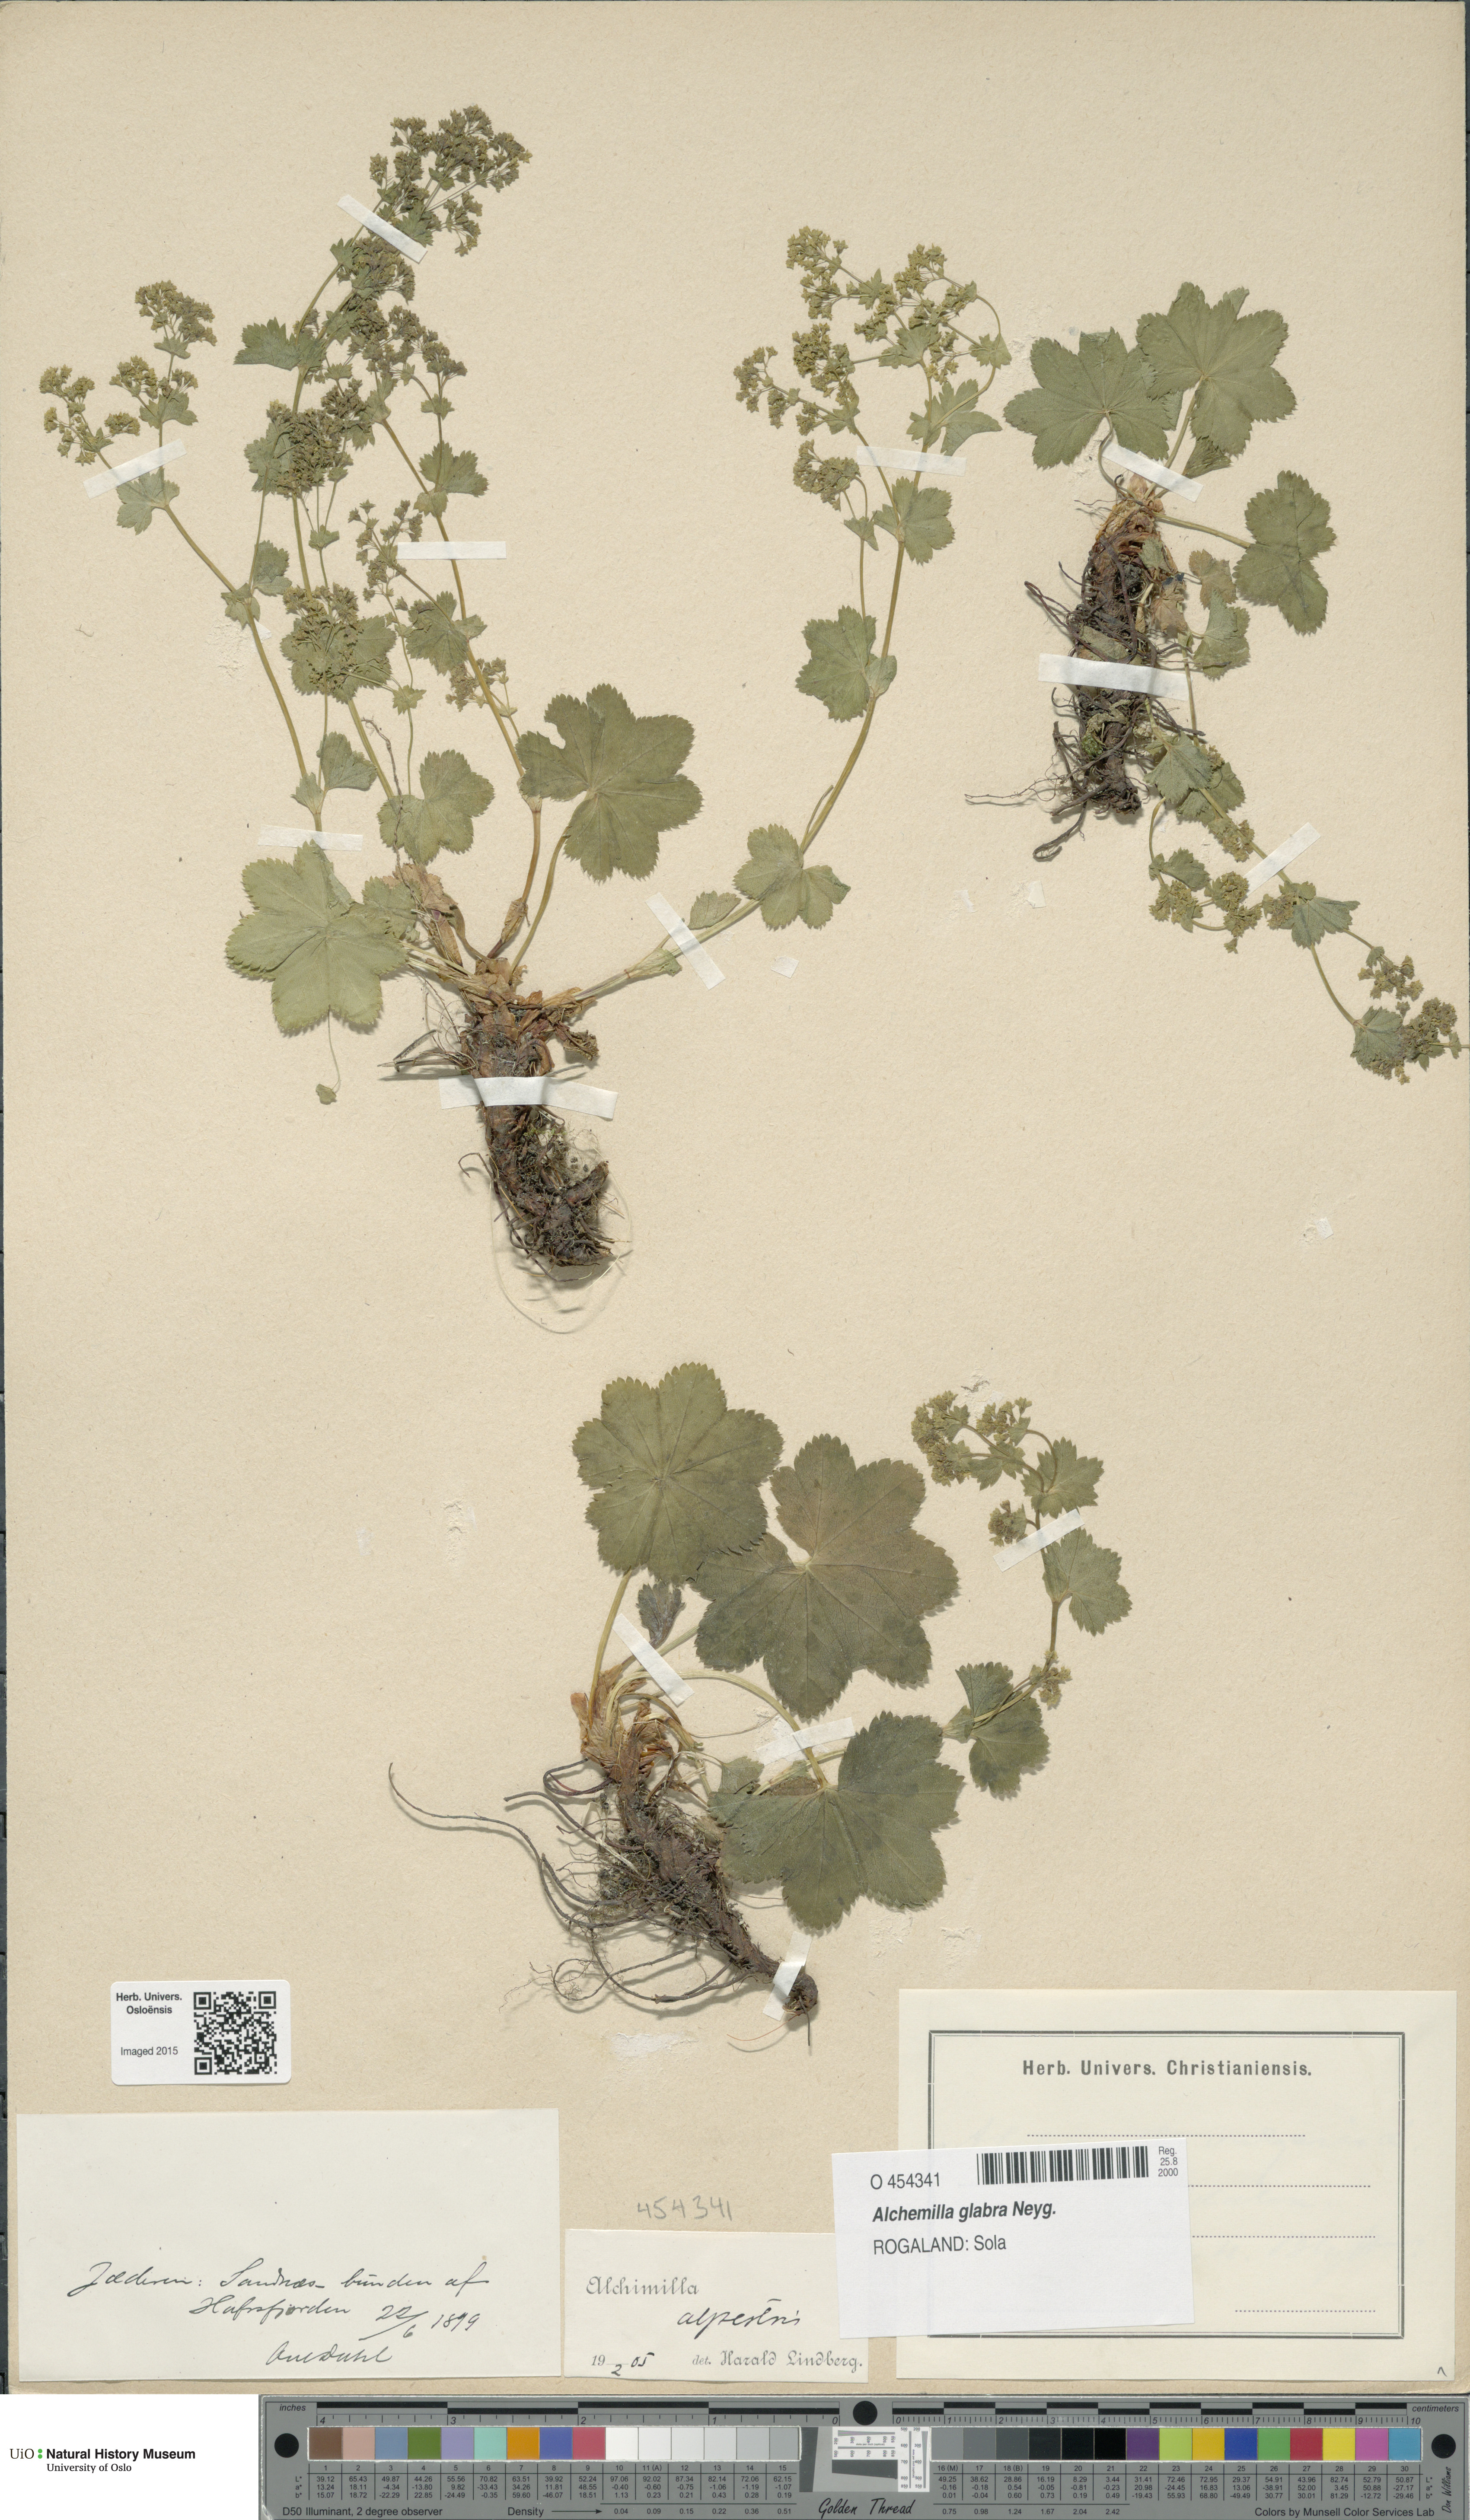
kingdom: Plantae
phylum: Tracheophyta
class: Magnoliopsida
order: Rosales
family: Rosaceae
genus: Alchemilla
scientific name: Alchemilla glabra
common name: Smooth lady's-mantle
